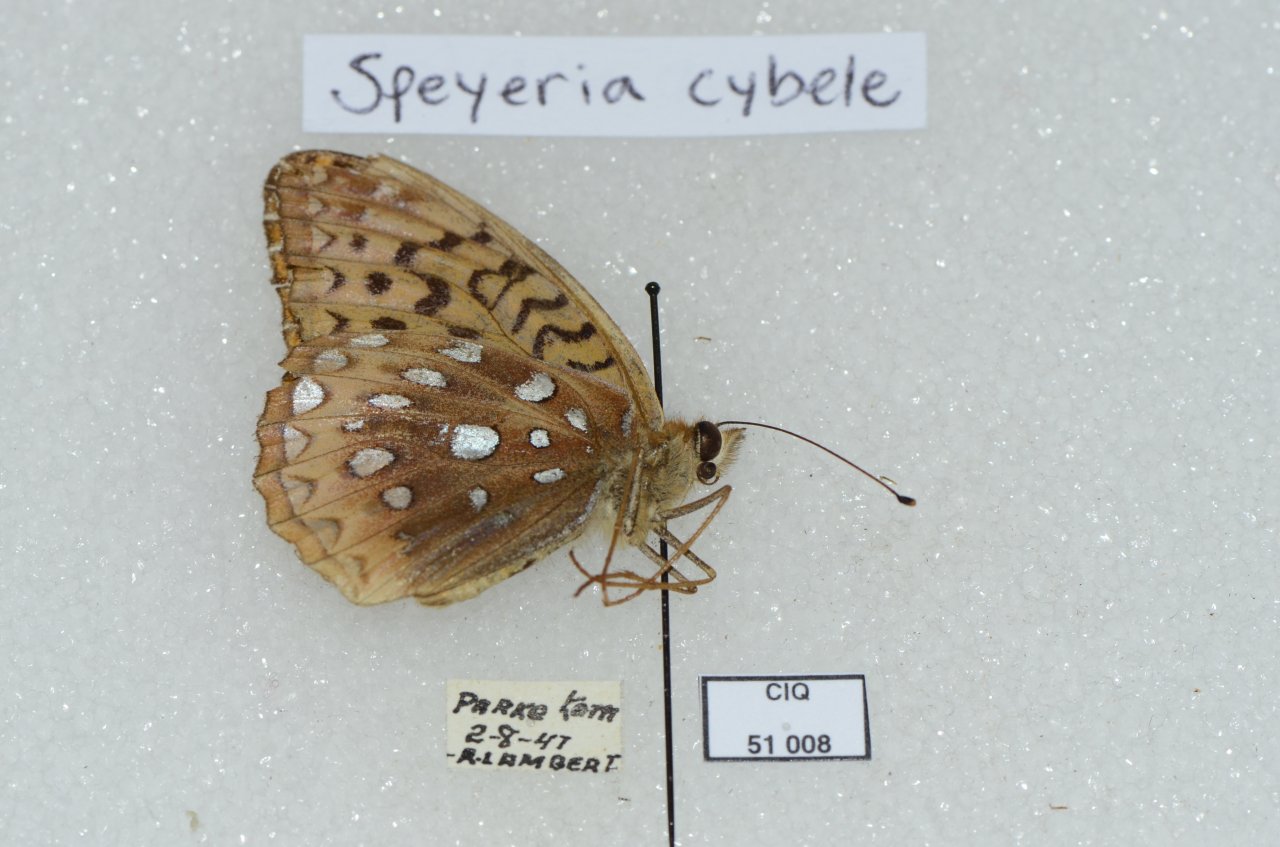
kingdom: Animalia
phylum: Arthropoda
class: Insecta
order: Lepidoptera
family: Nymphalidae
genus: Speyeria
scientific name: Speyeria cybele
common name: Great Spangled Fritillary
